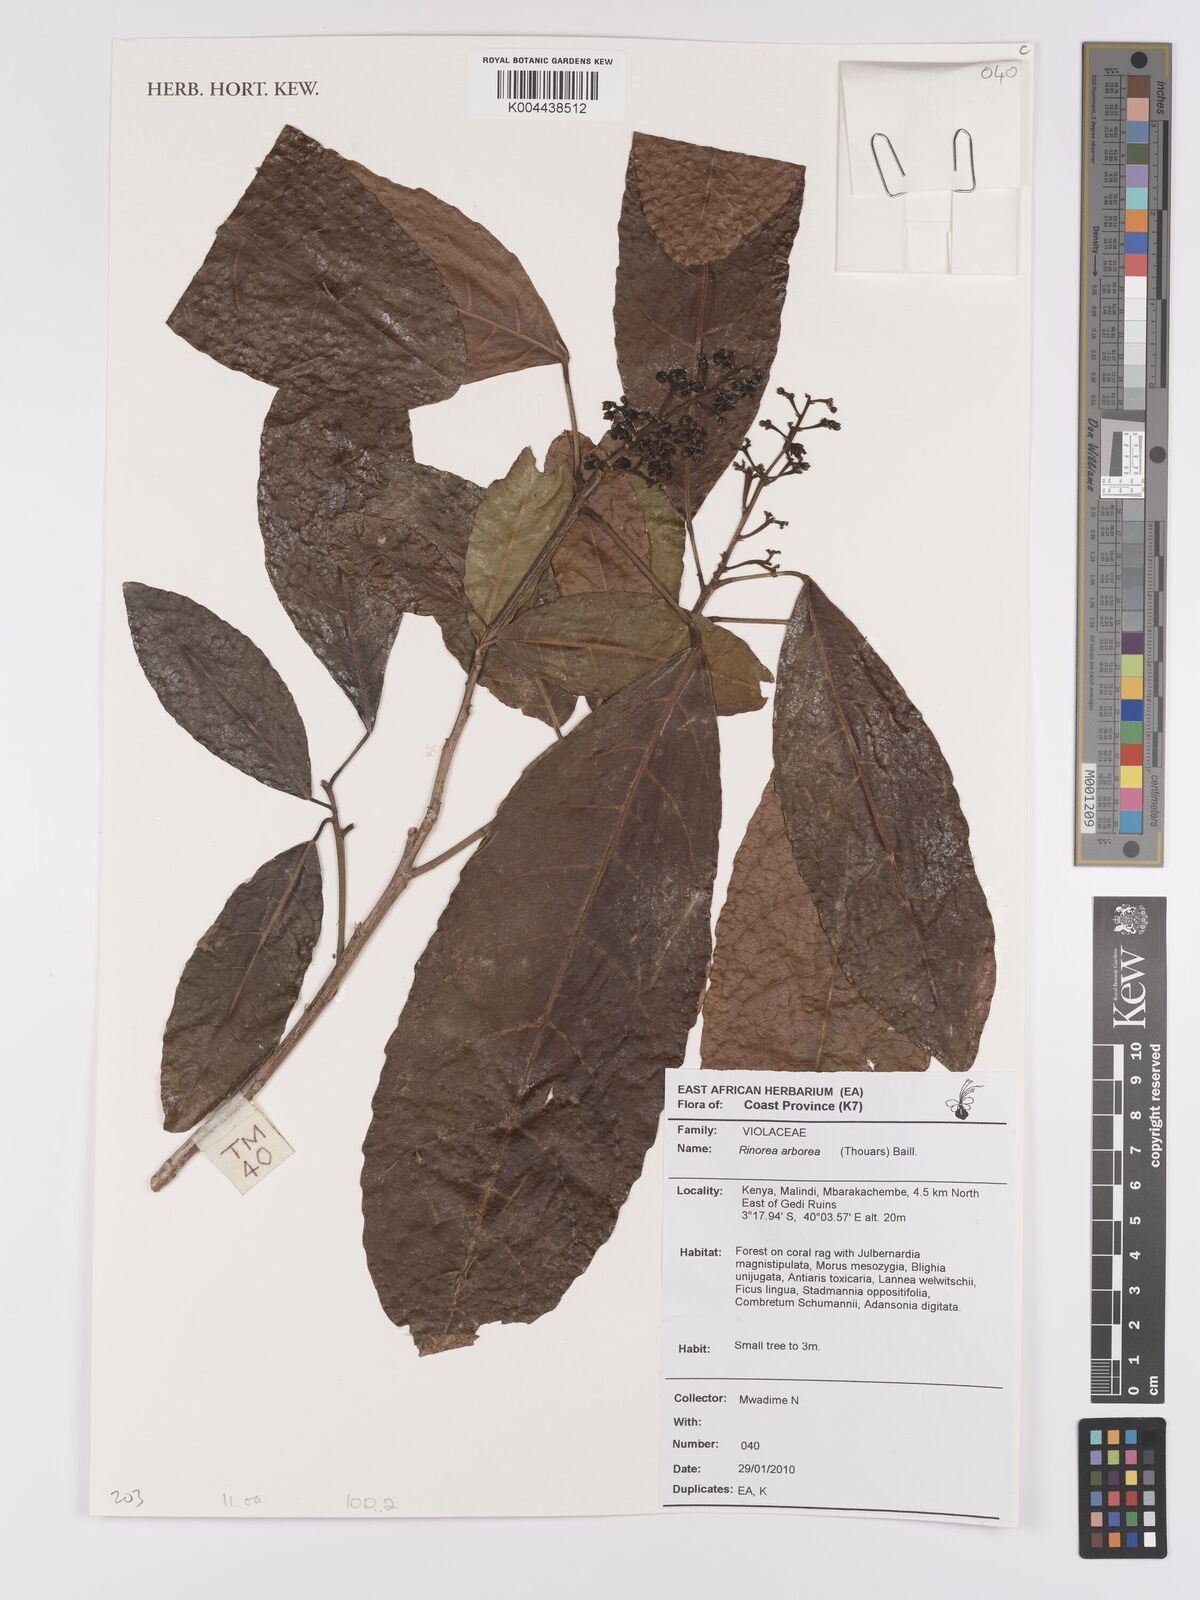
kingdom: Plantae
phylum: Tracheophyta
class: Magnoliopsida
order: Malpighiales
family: Violaceae
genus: Rinorea
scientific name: Rinorea arborea
